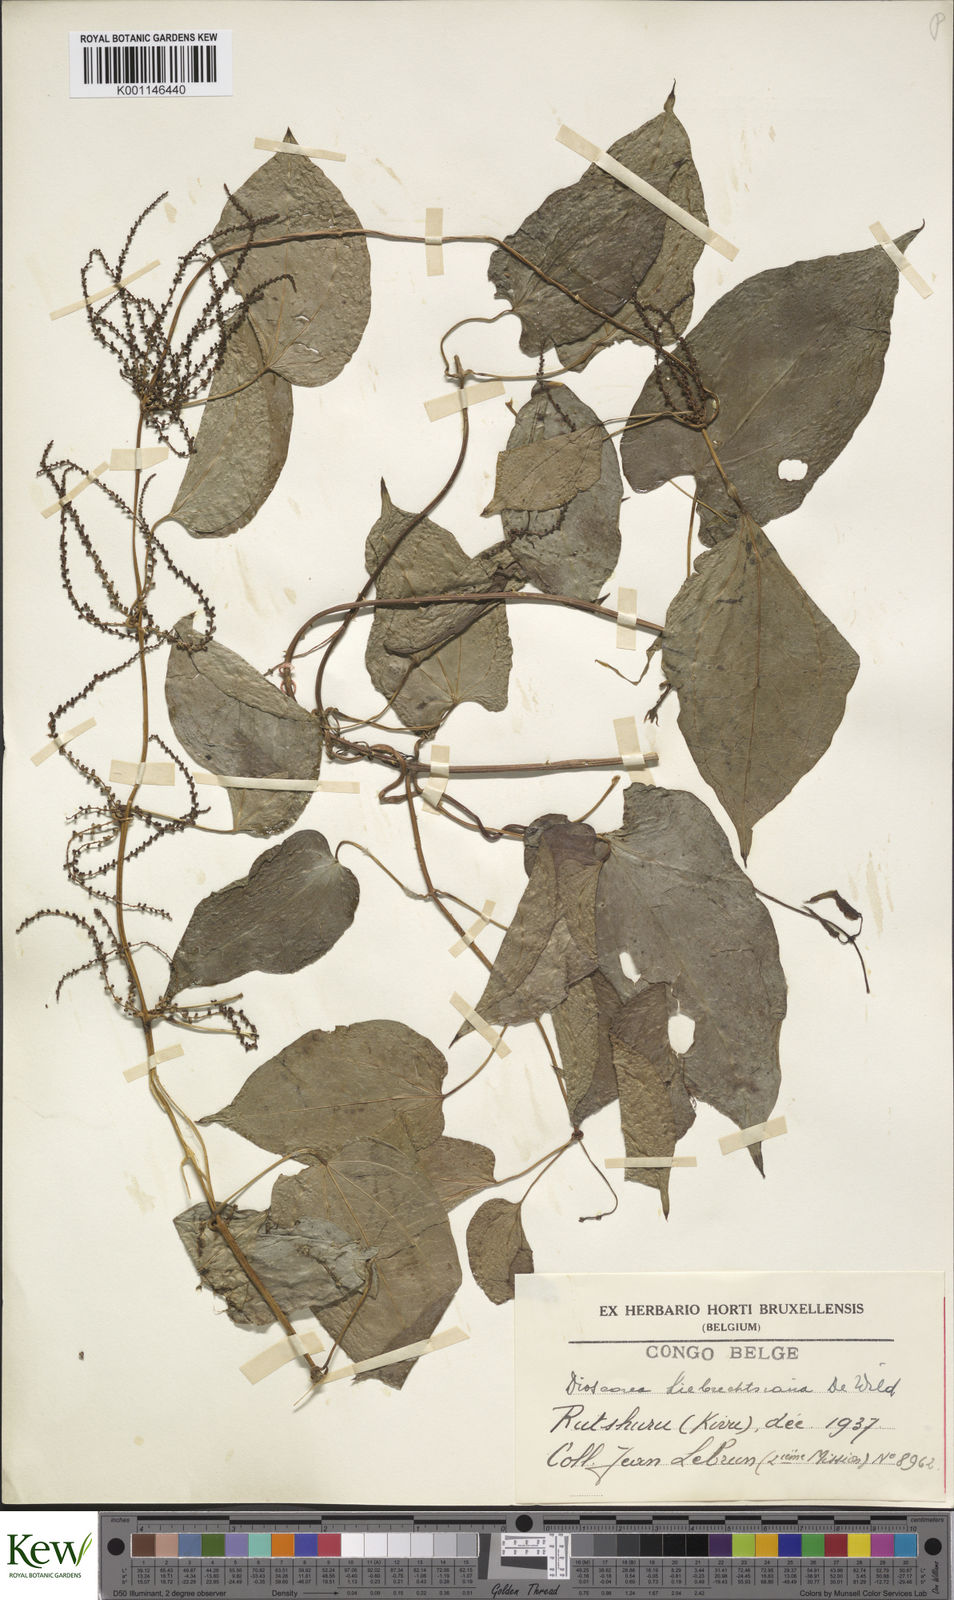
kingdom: Plantae
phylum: Tracheophyta
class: Liliopsida
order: Dioscoreales
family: Dioscoreaceae
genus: Dioscorea
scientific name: Dioscorea praehensilis
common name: Bush yam
